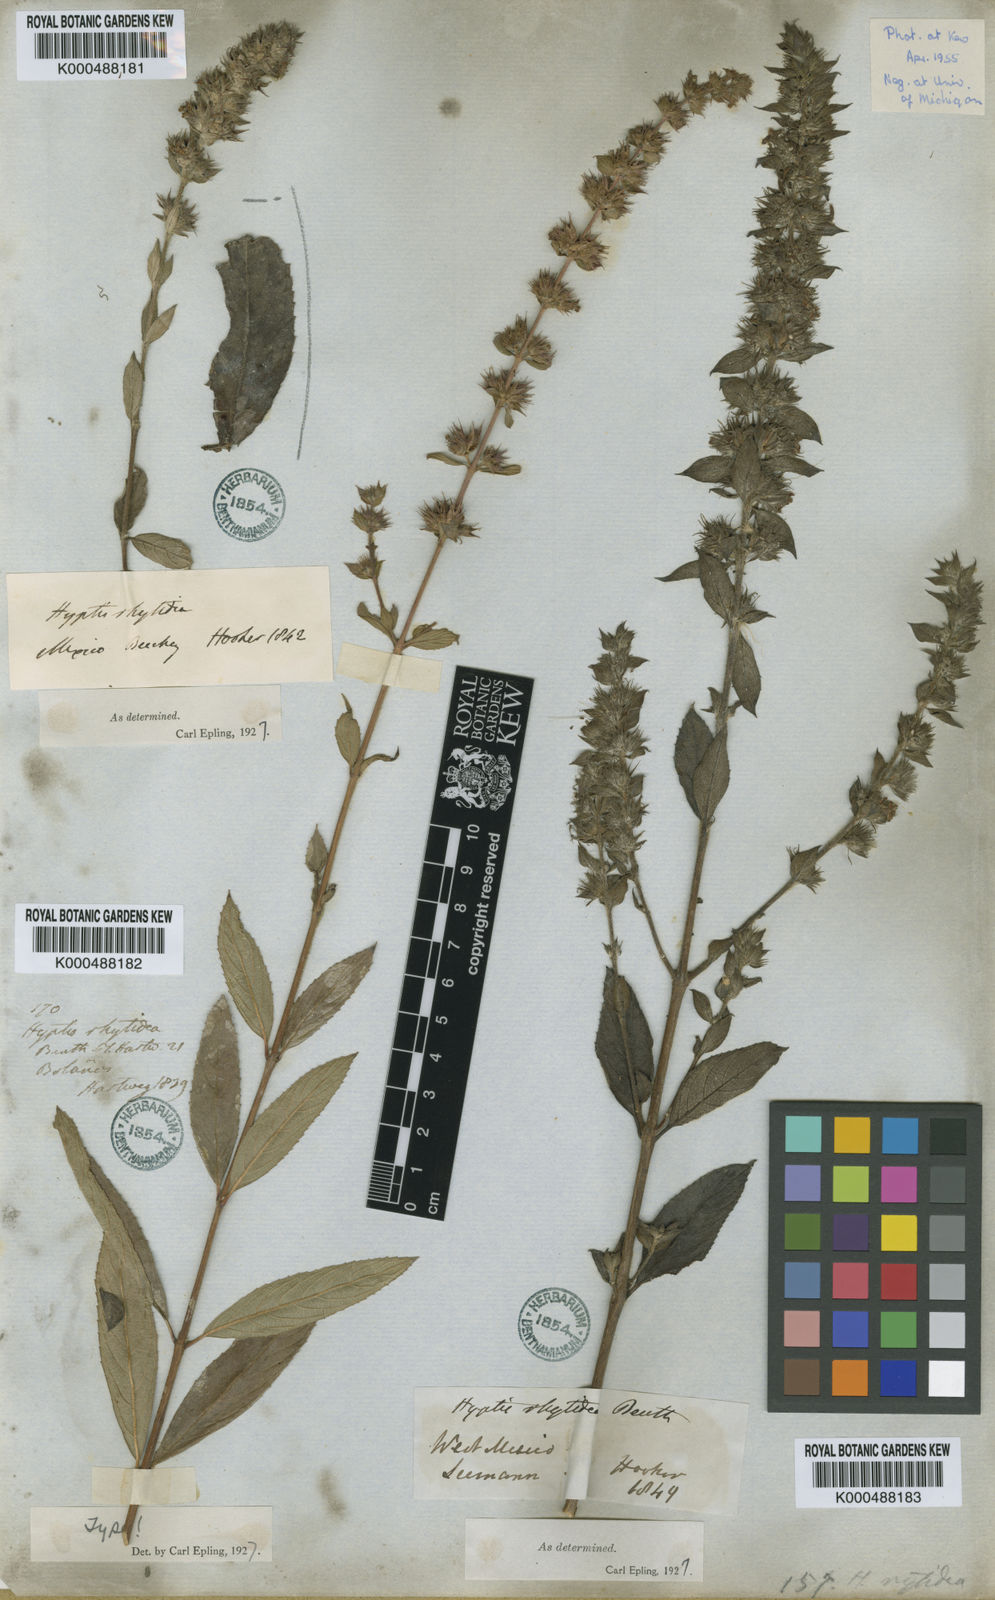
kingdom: Plantae
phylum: Tracheophyta
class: Magnoliopsida
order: Lamiales
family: Lamiaceae
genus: Hyptis
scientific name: Hyptis rhytidea
